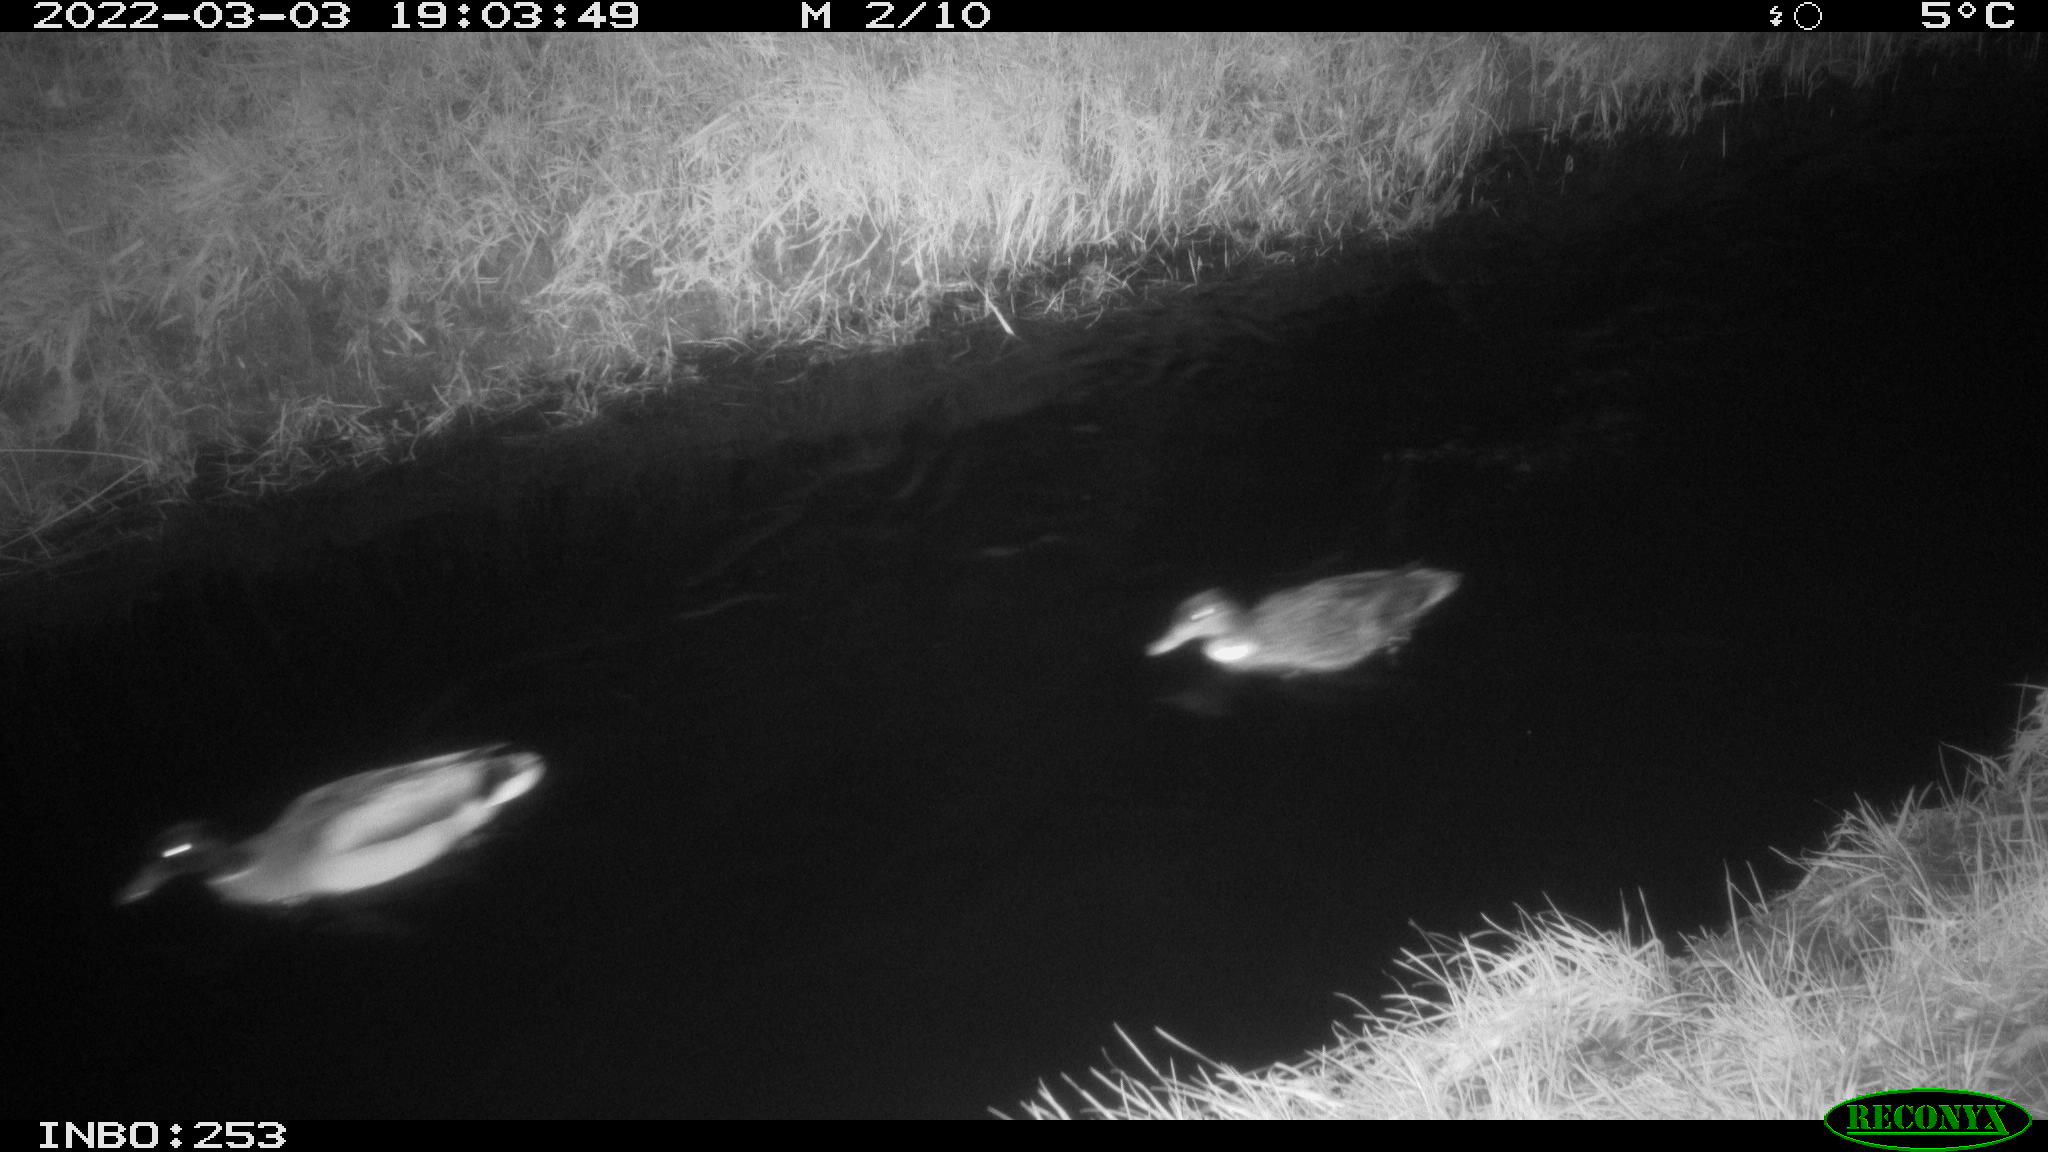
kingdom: Animalia
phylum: Chordata
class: Aves
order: Anseriformes
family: Anatidae
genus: Anas
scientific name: Anas platyrhynchos
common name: Mallard
